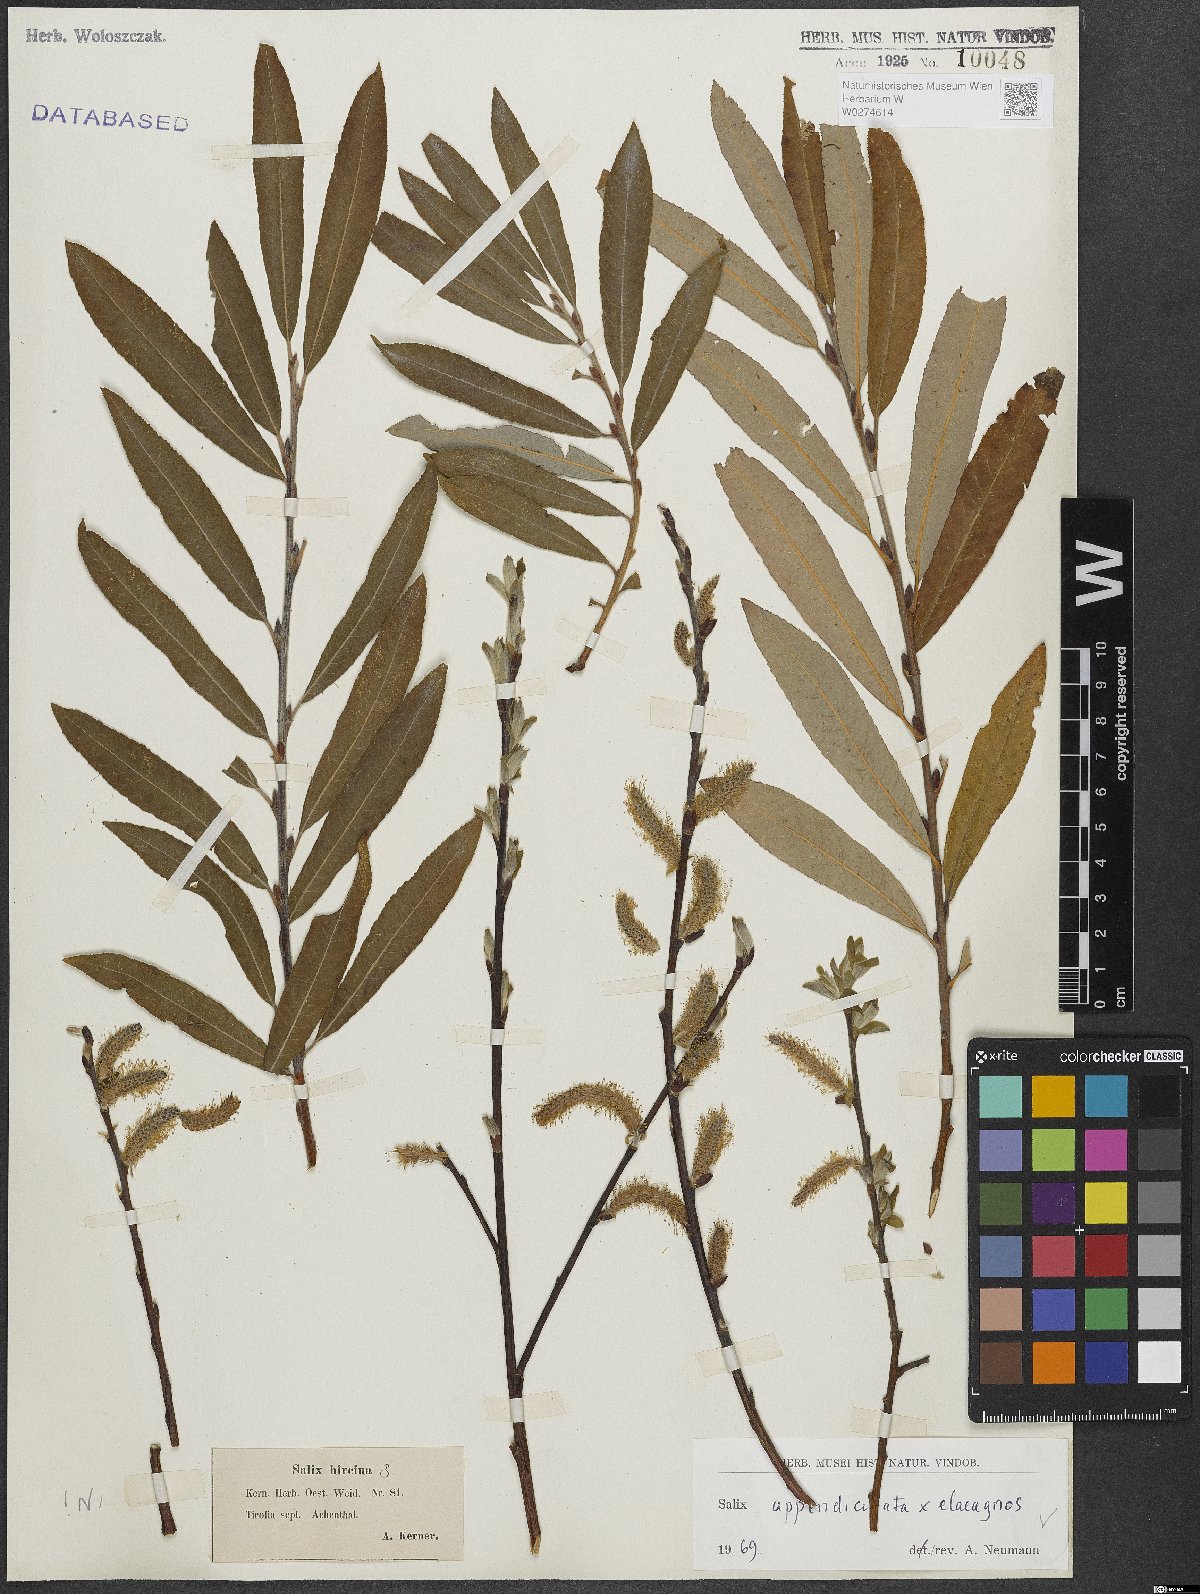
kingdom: Plantae
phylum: Tracheophyta
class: Magnoliopsida
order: Malpighiales
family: Salicaceae
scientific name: Salicaceae
